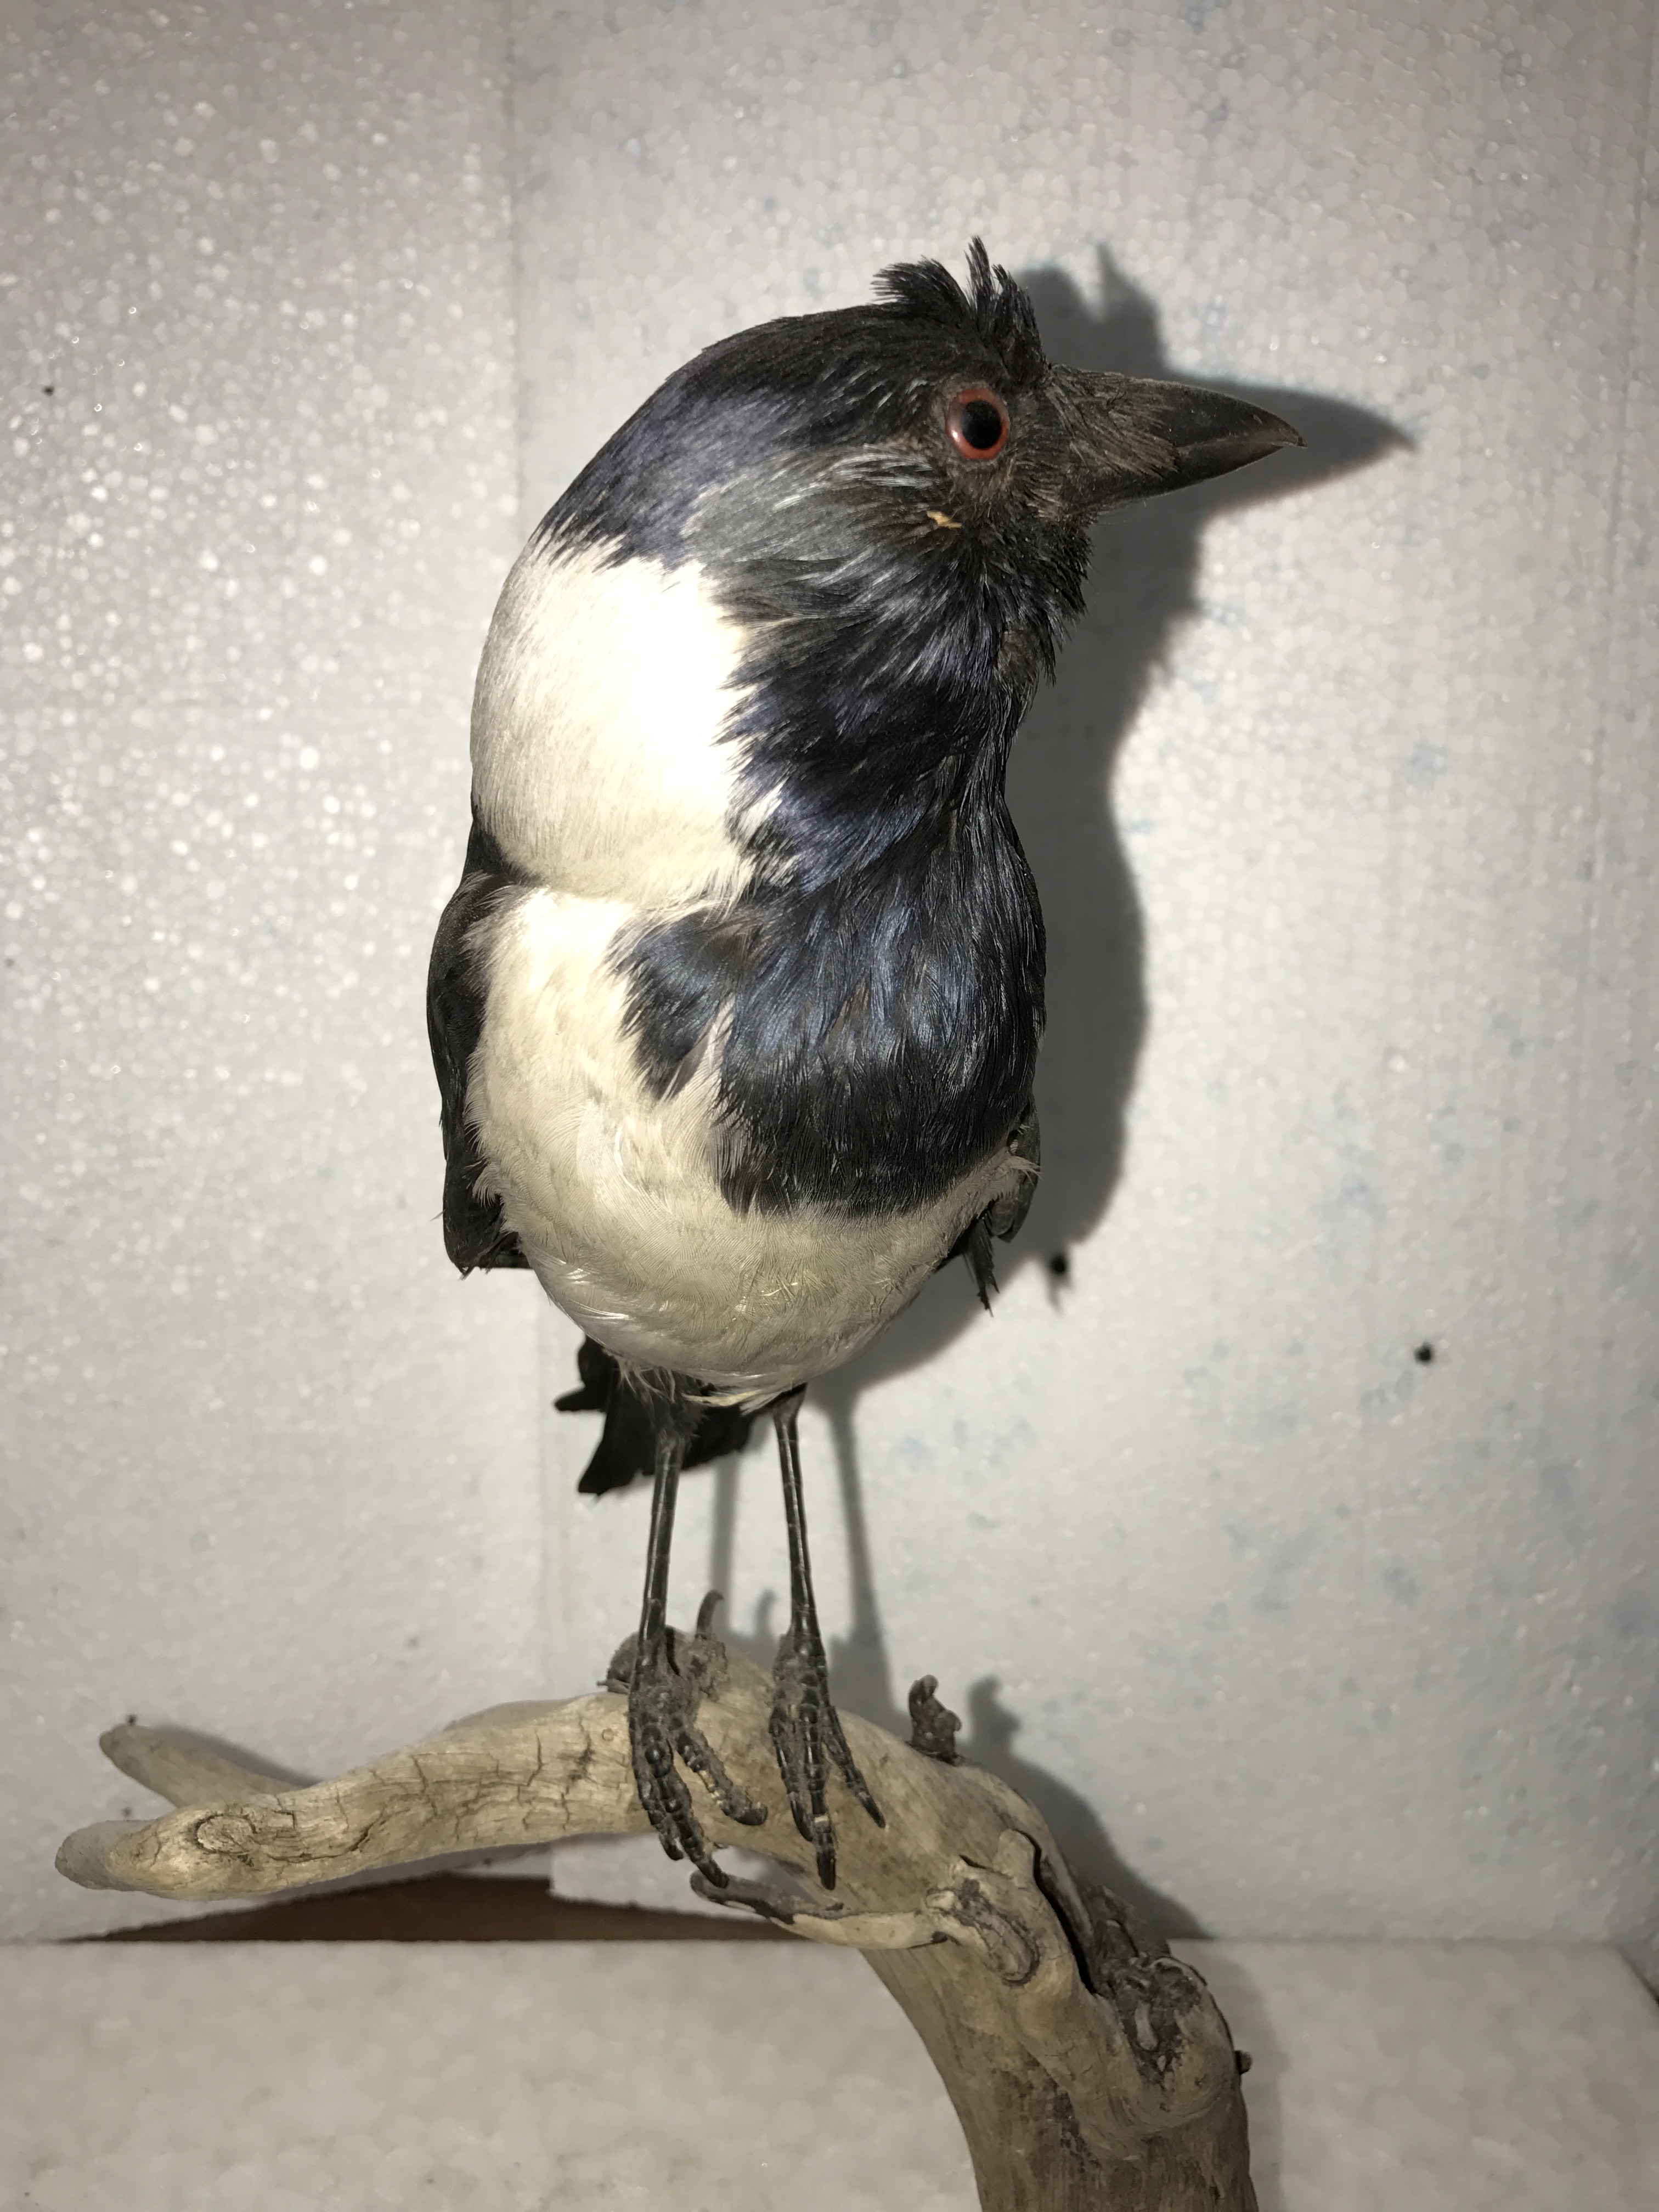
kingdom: Animalia
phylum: Chordata
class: Aves
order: Passeriformes
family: Corvidae
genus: Coloeus
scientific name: Coloeus dauuricus
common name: Daurian jackdaw
